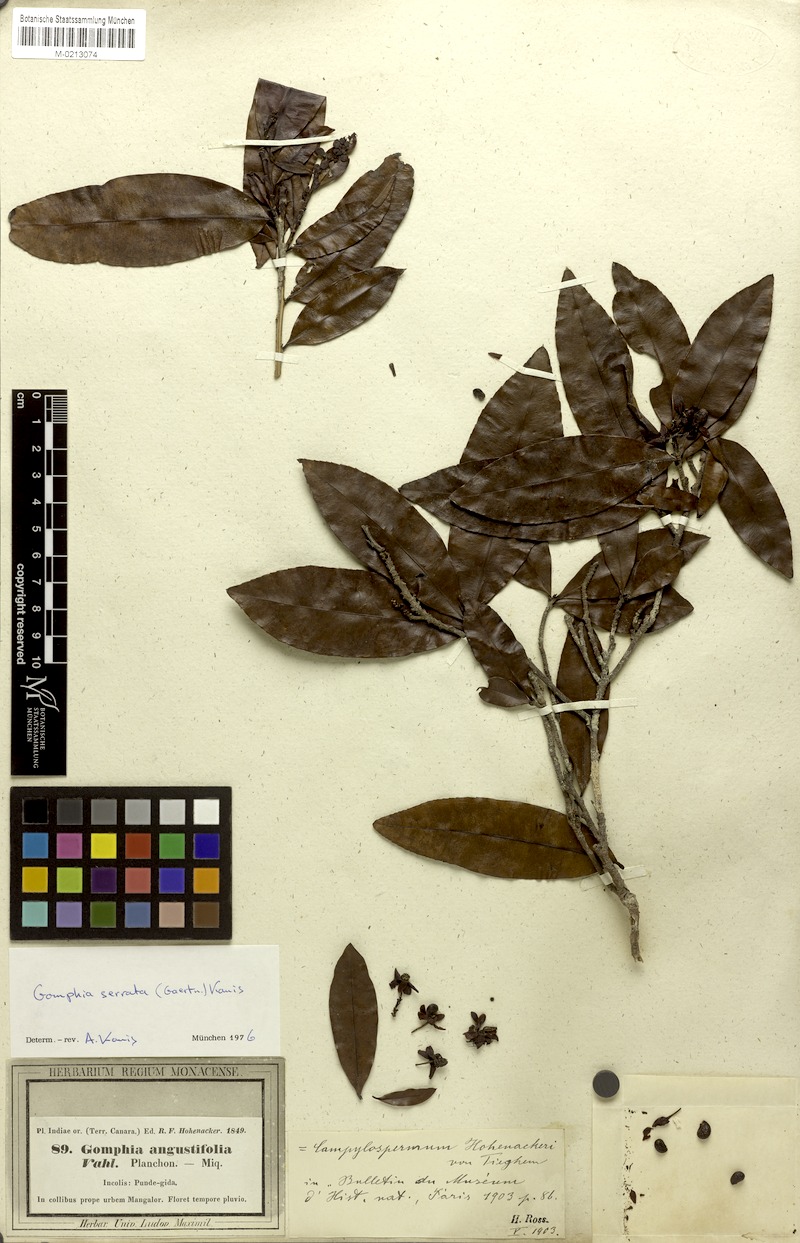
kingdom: Plantae
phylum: Tracheophyta
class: Magnoliopsida
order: Malpighiales
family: Ochnaceae
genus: Gomphia
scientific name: Gomphia serrata
